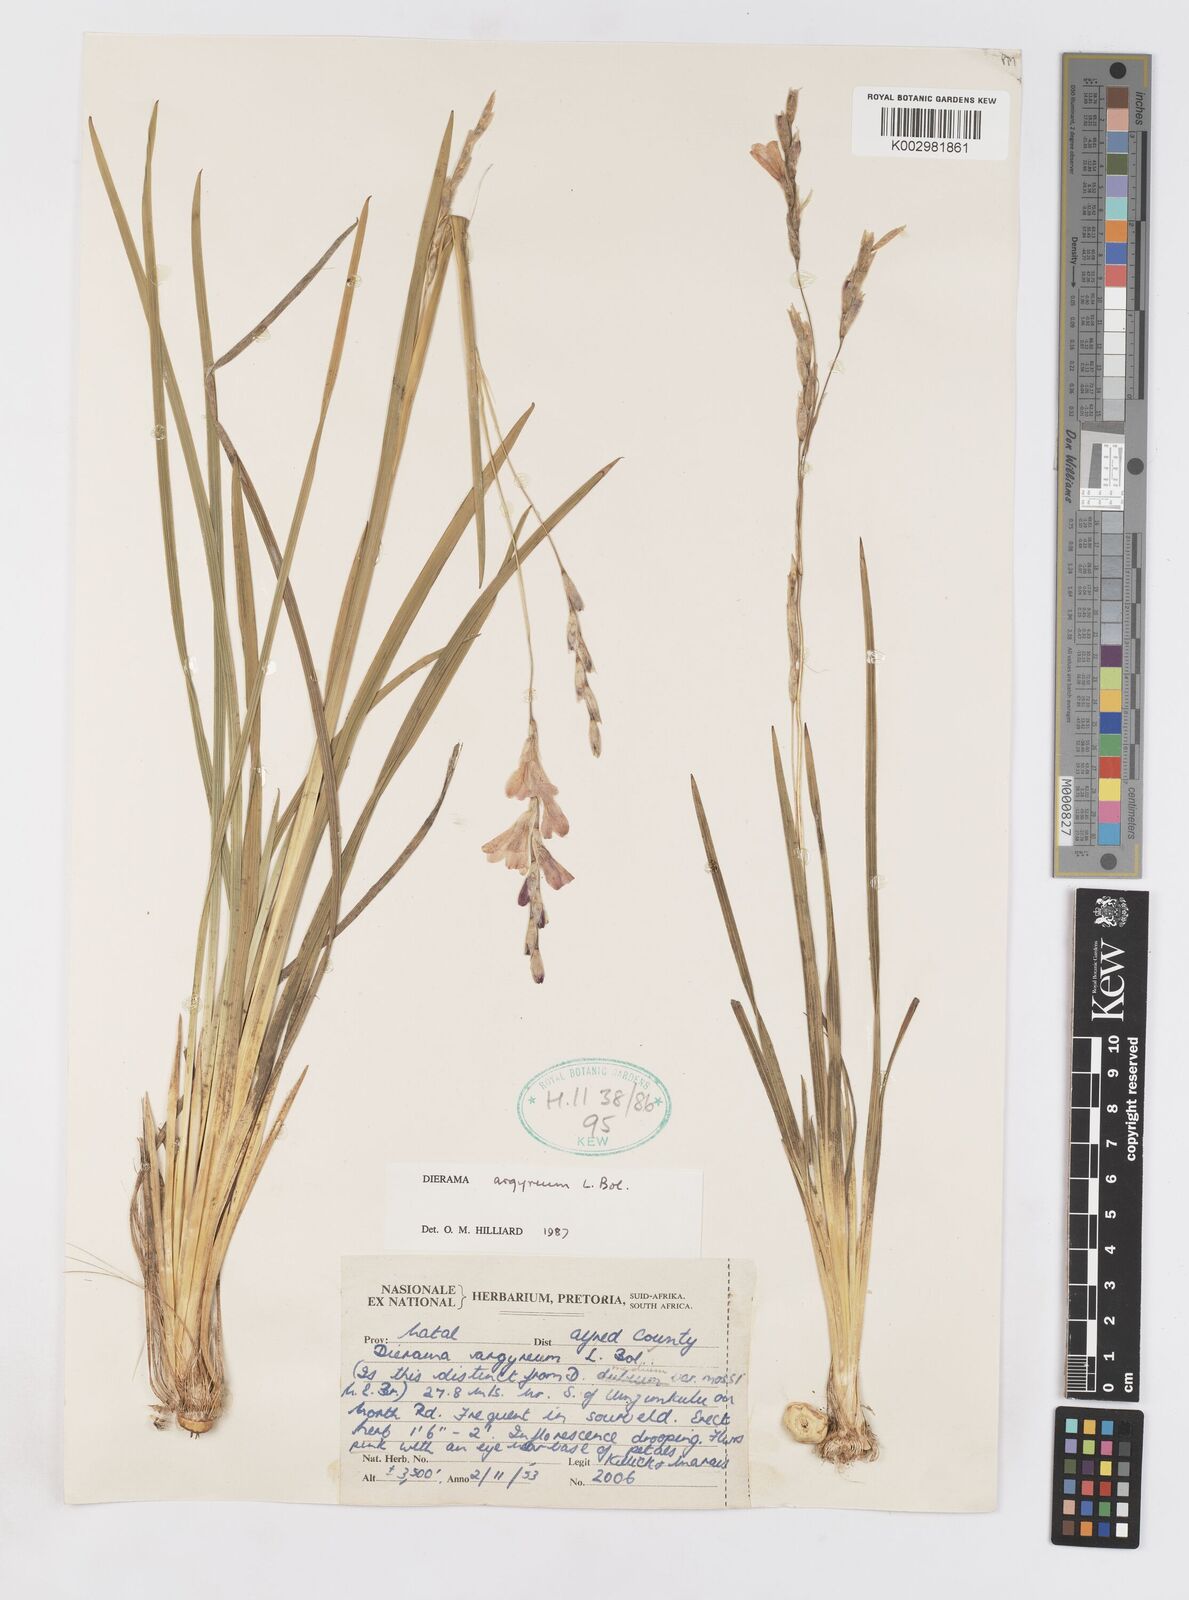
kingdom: Plantae
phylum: Tracheophyta
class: Liliopsida
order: Asparagales
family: Iridaceae
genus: Dierama
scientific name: Dierama argyreum
